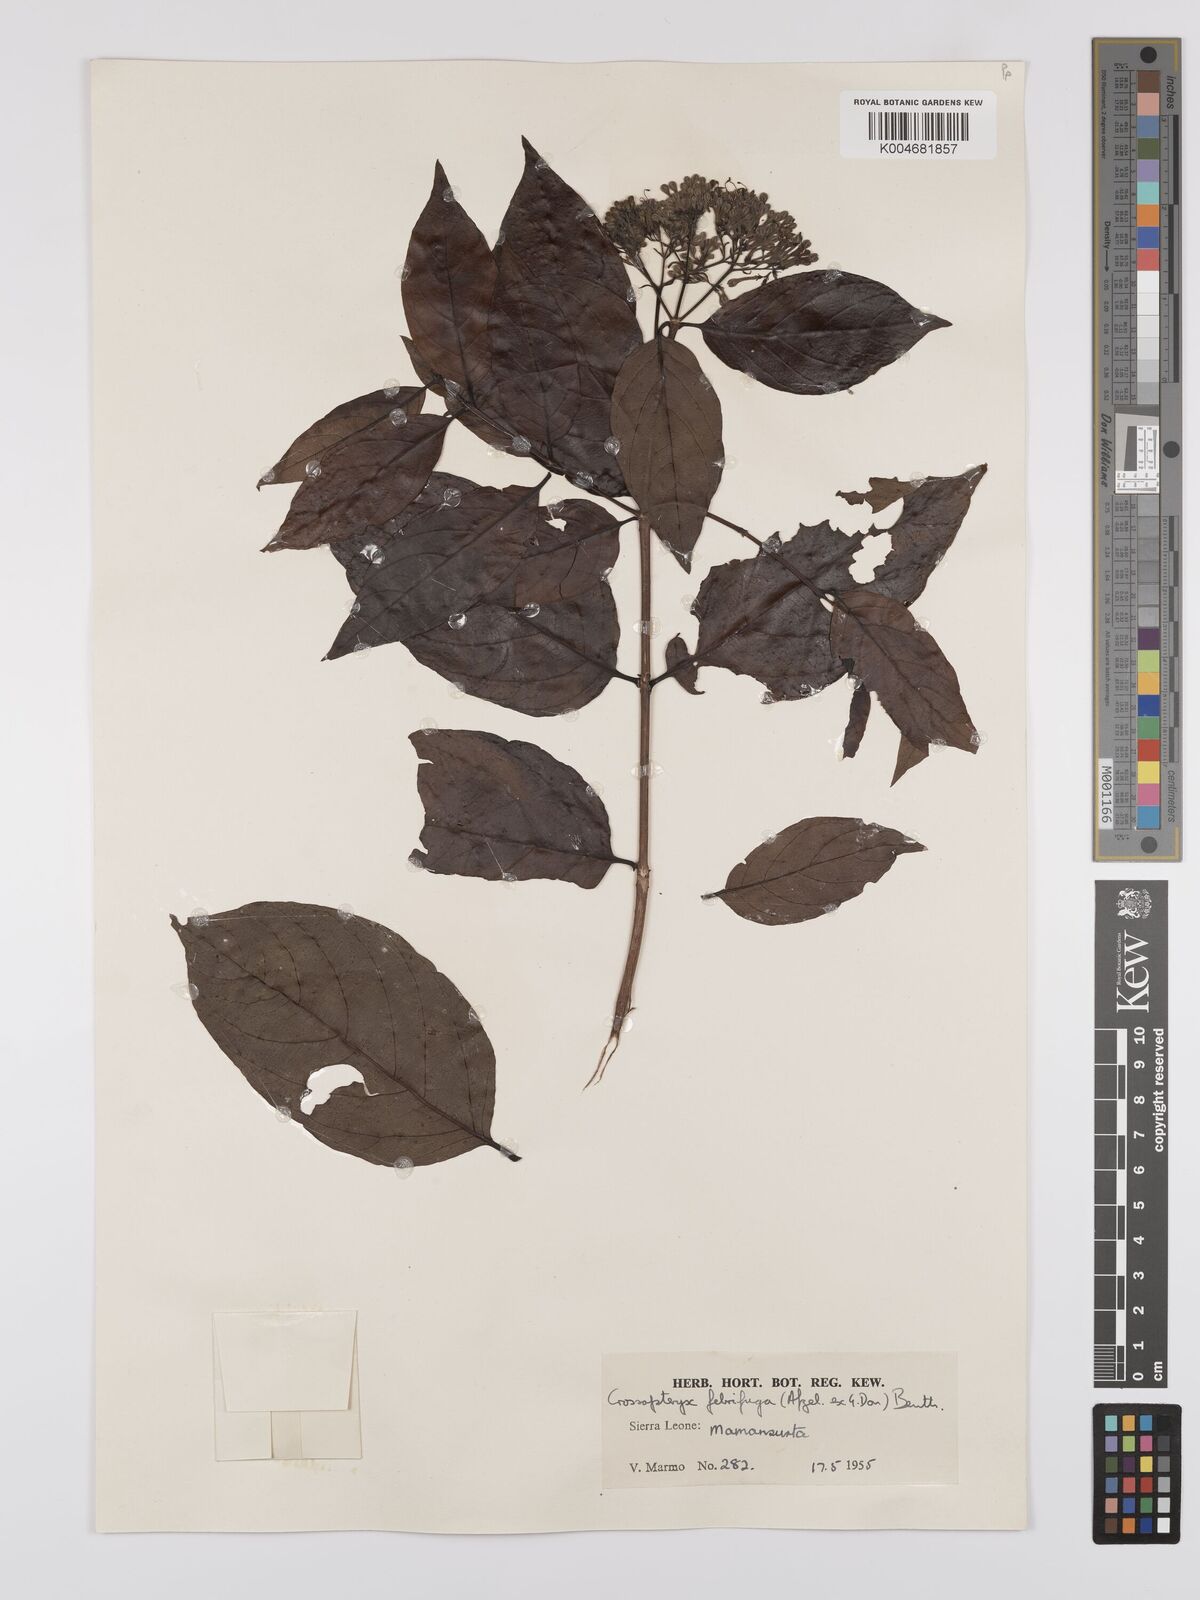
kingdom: Plantae
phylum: Tracheophyta
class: Magnoliopsida
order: Gentianales
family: Rubiaceae
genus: Crossopteryx
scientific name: Crossopteryx febrifuga
